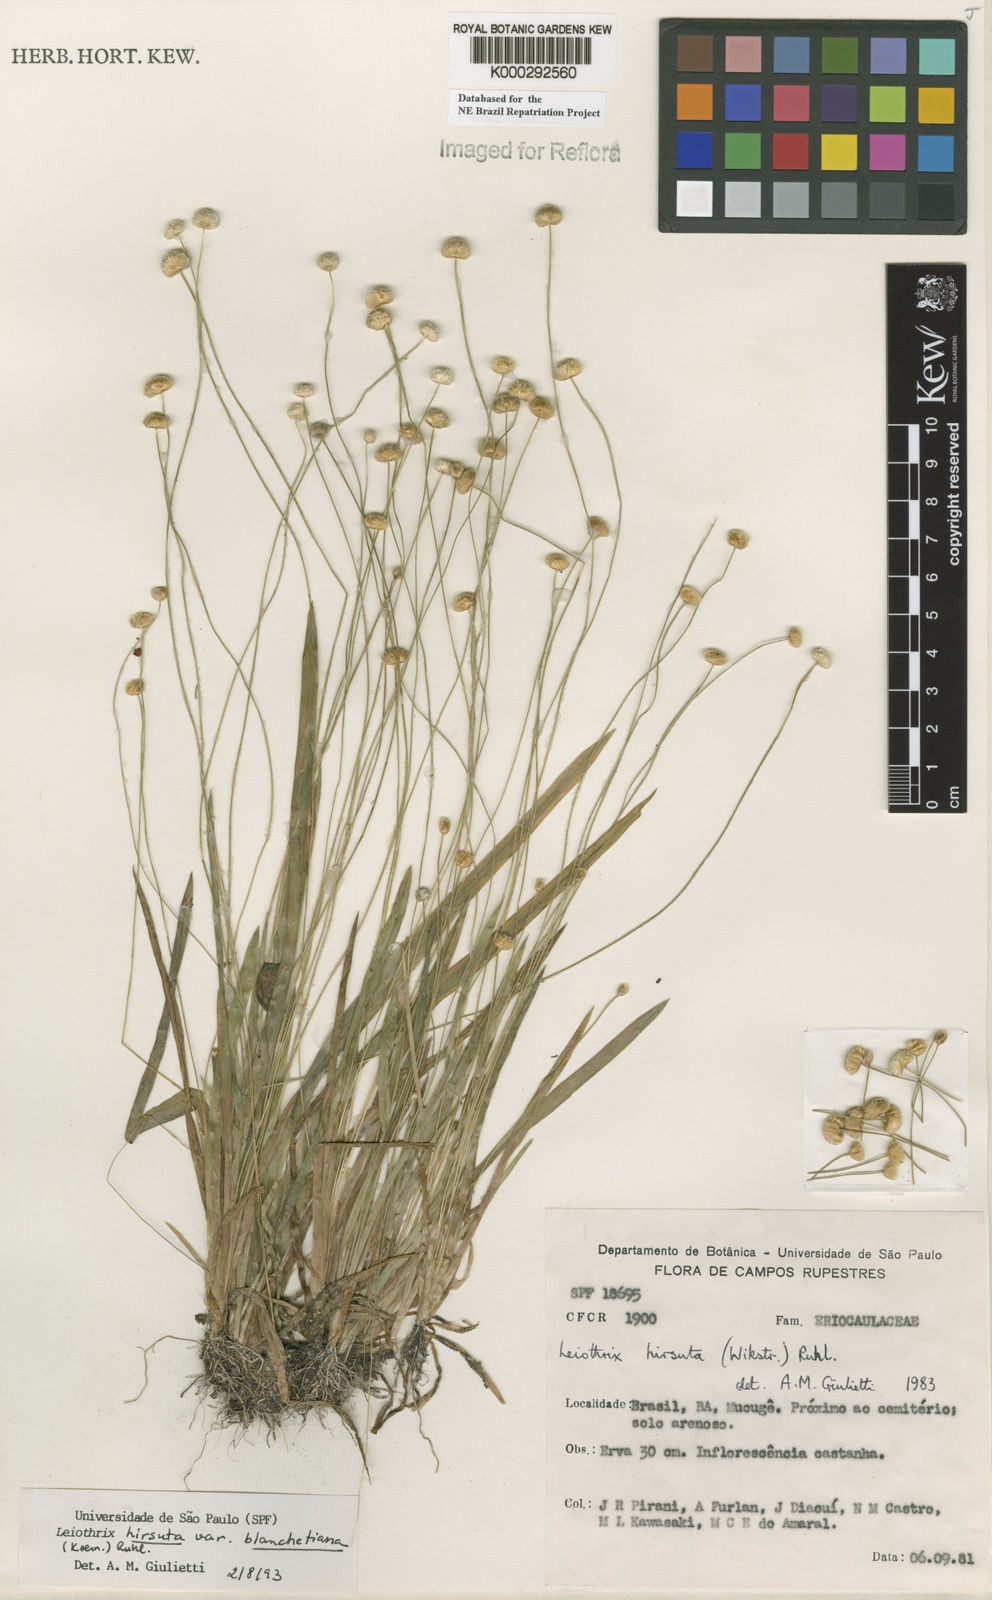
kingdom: Plantae
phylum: Tracheophyta
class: Liliopsida
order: Poales
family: Eriocaulaceae
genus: Leiothrix
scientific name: Leiothrix hirsuta
